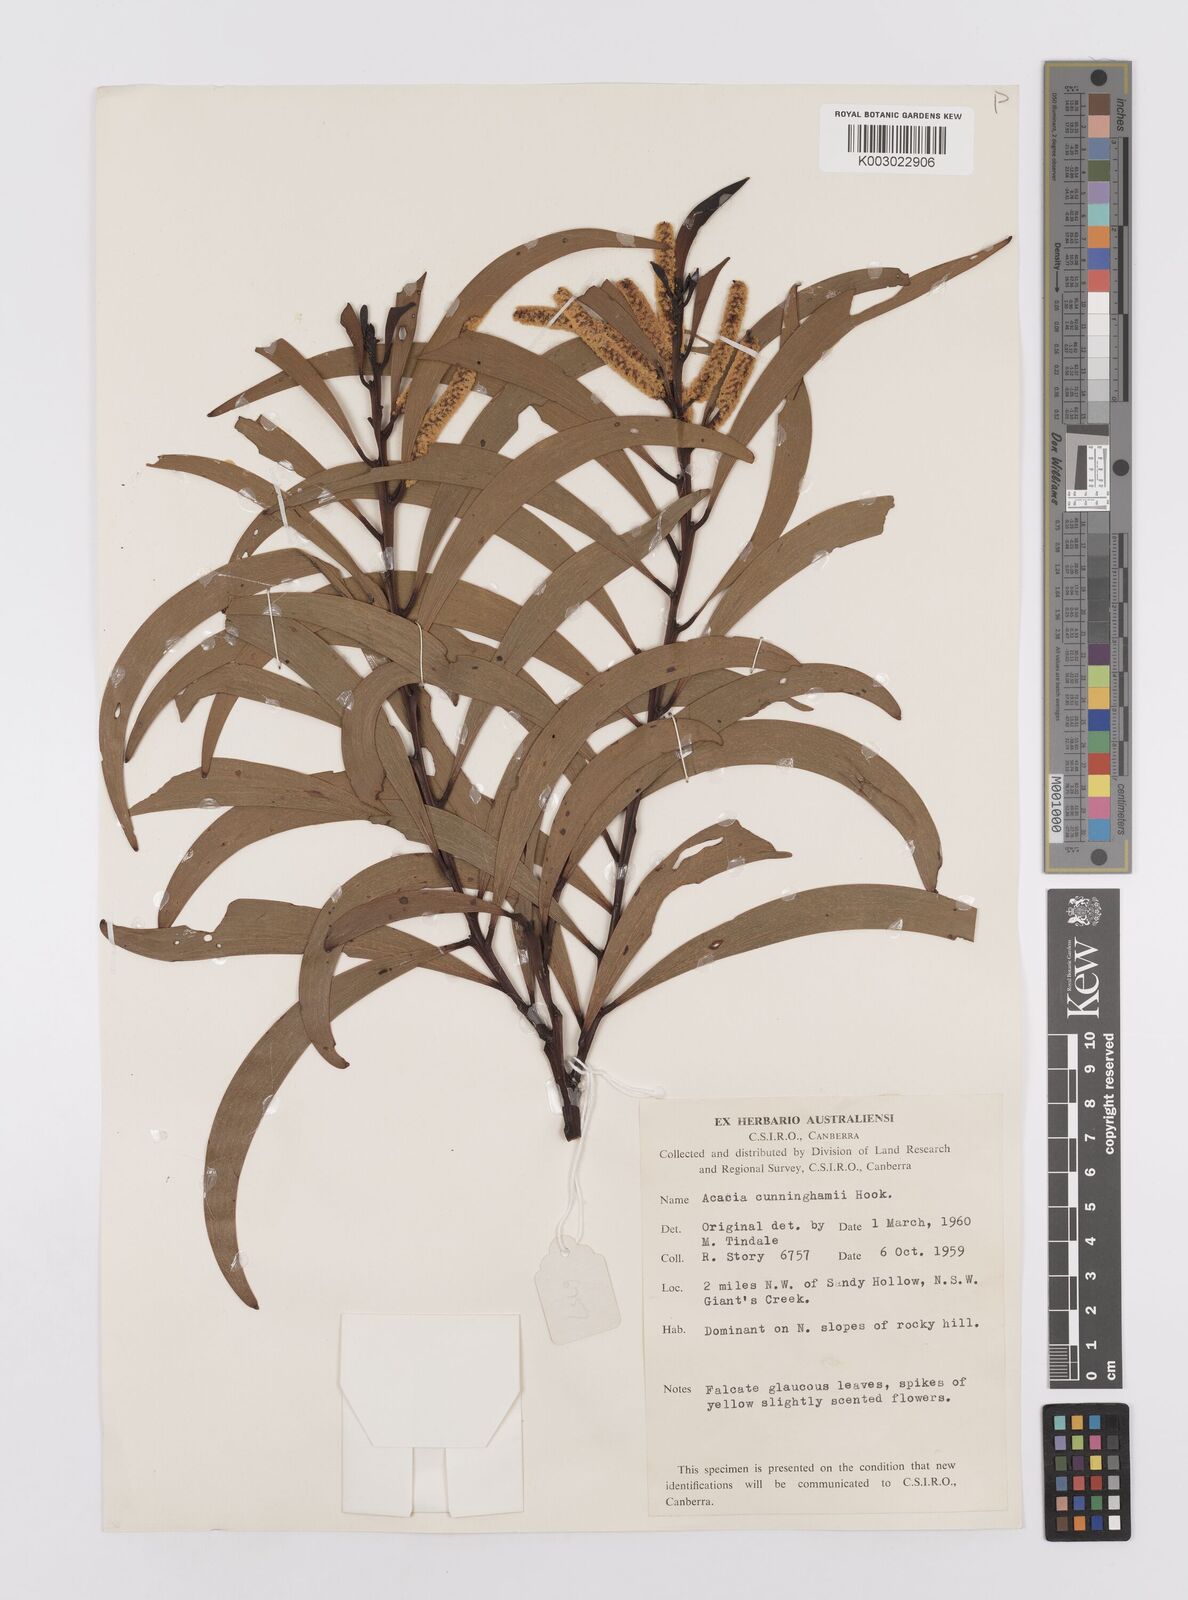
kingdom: Plantae
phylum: Tracheophyta
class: Magnoliopsida
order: Fabales
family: Fabaceae
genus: Acacia
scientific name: Acacia longispicata
